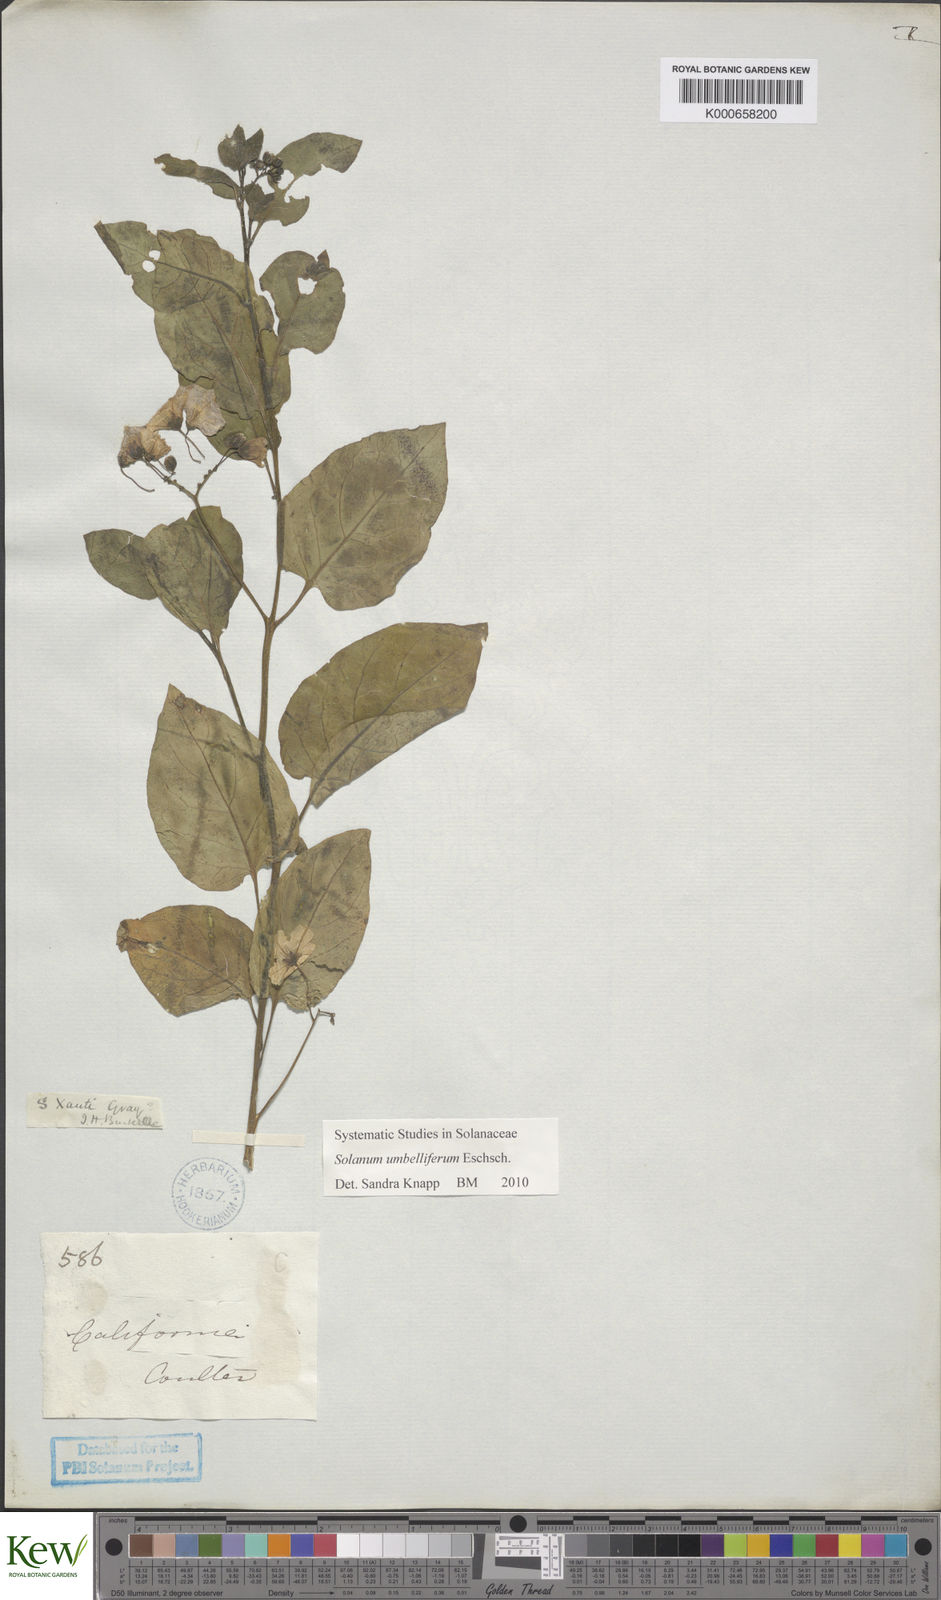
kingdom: Plantae
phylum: Tracheophyta
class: Magnoliopsida
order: Solanales
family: Solanaceae
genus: Solanum
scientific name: Solanum umbelliferum
